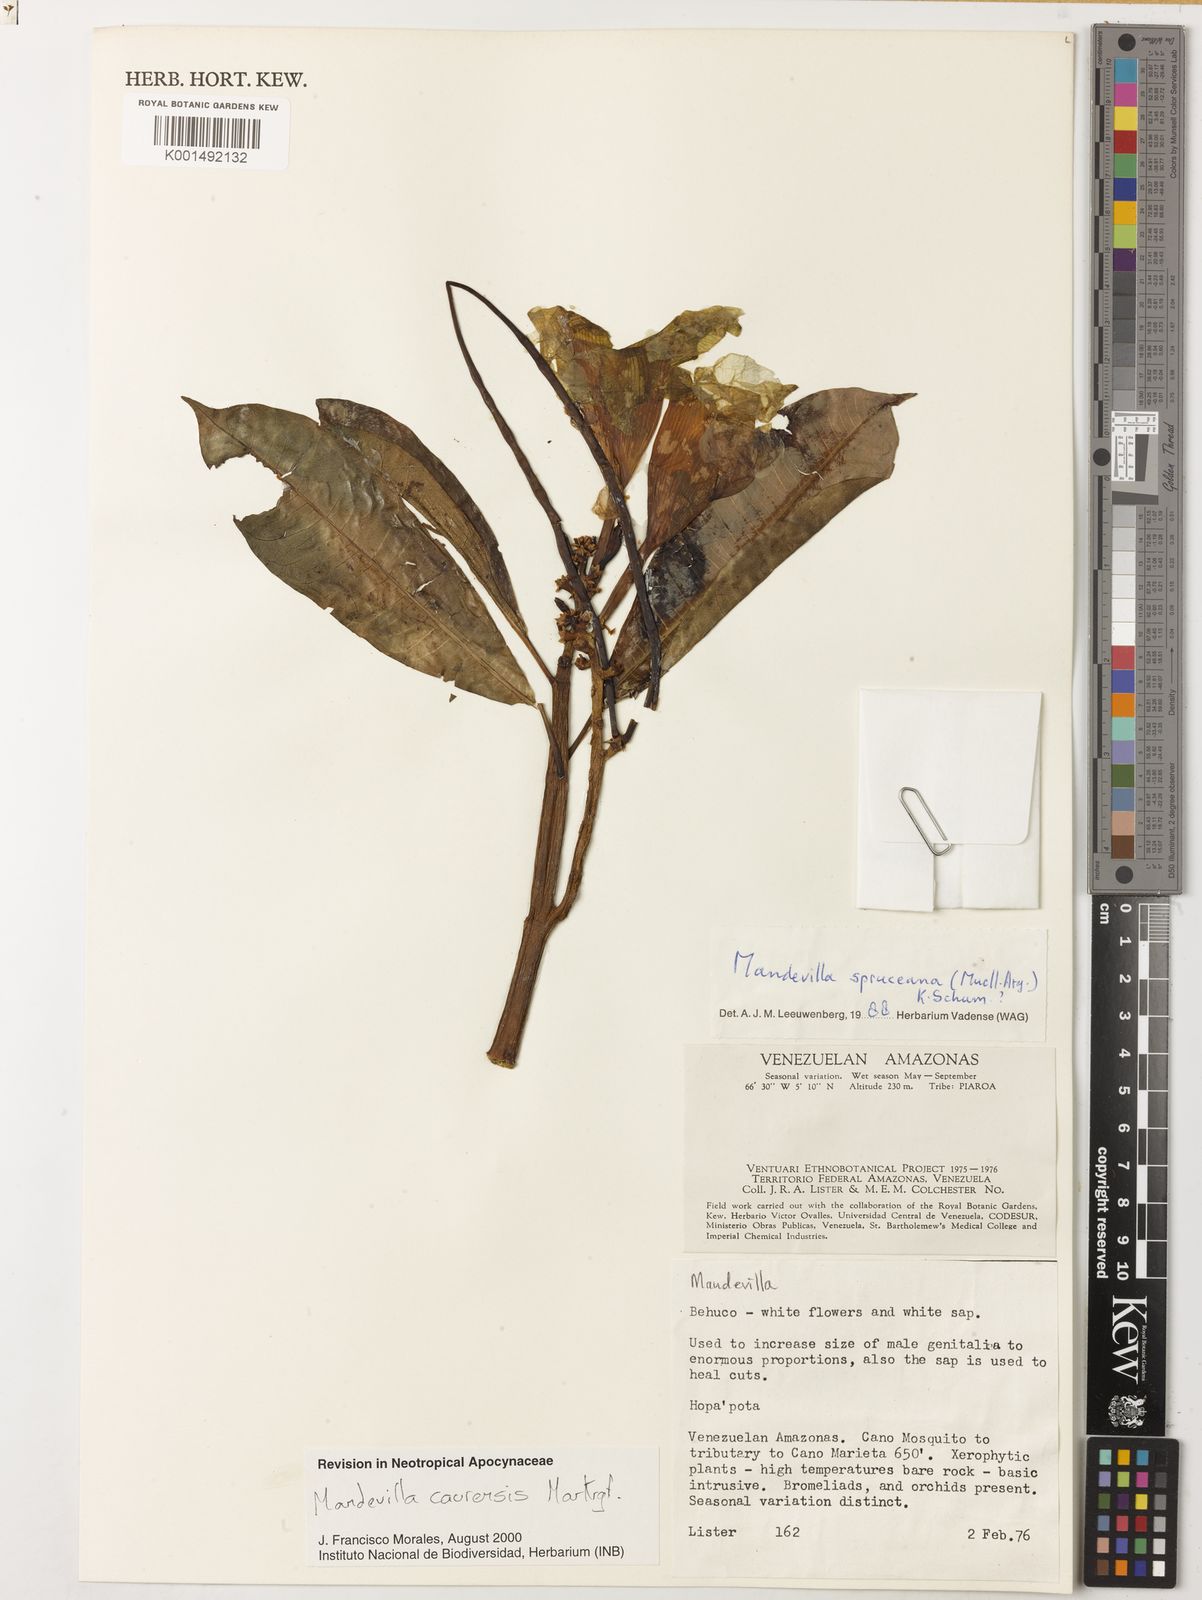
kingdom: Plantae
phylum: Tracheophyta
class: Magnoliopsida
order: Gentianales
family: Apocynaceae
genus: Mandevilla
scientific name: Mandevilla caurensis
